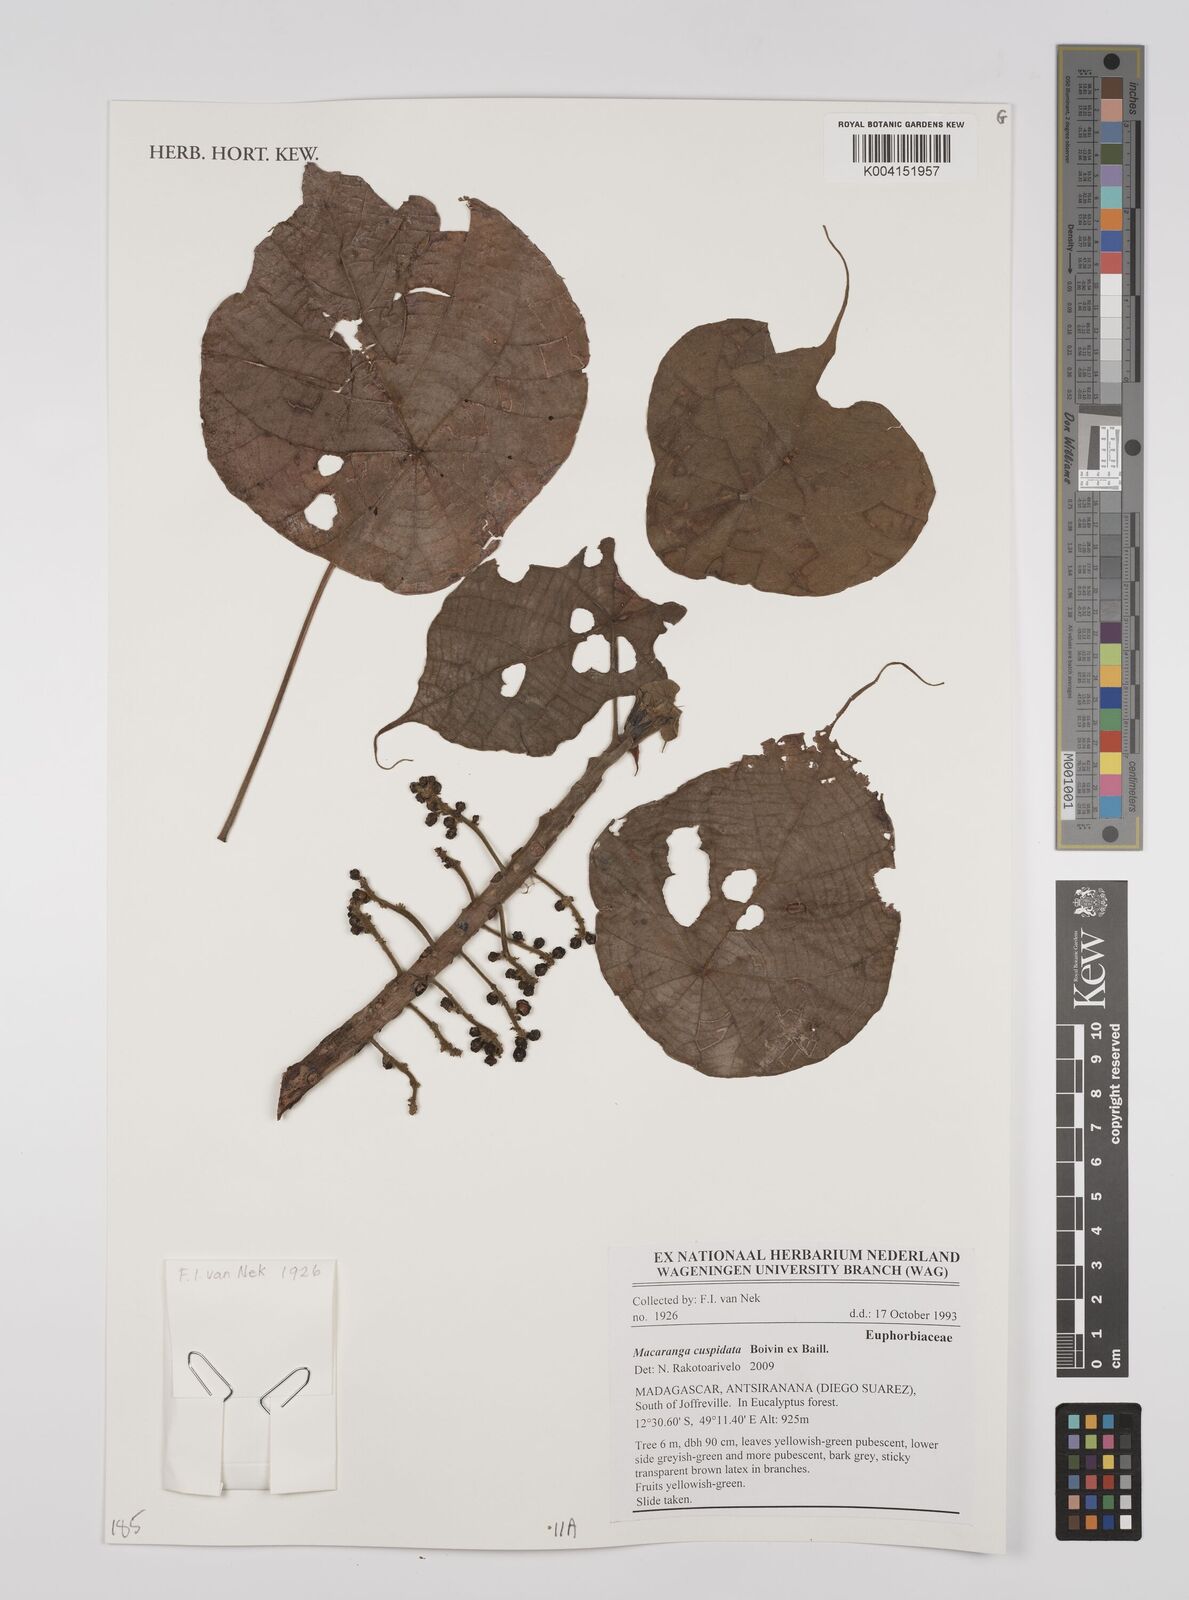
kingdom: Plantae
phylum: Tracheophyta
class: Magnoliopsida
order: Malpighiales
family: Euphorbiaceae
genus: Macaranga
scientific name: Macaranga cupularis
